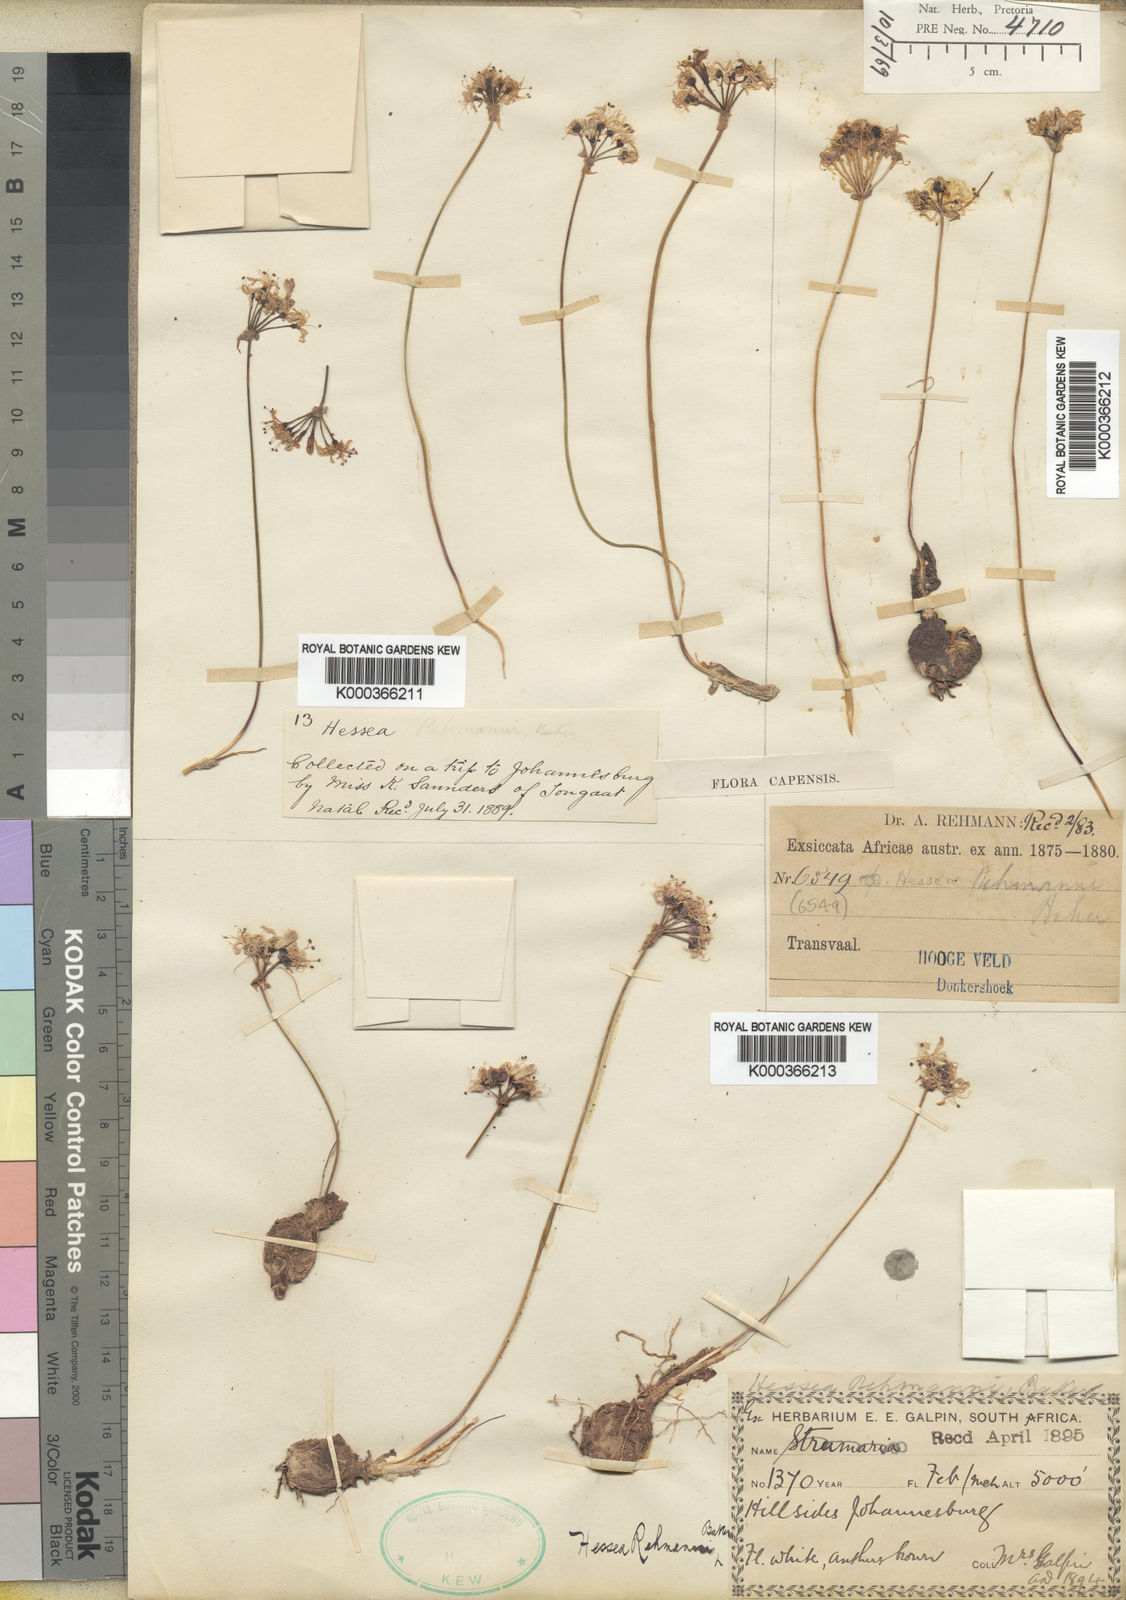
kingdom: Plantae
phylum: Tracheophyta
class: Liliopsida
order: Asparagales
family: Amaryllidaceae
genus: Nerine
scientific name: Nerine
